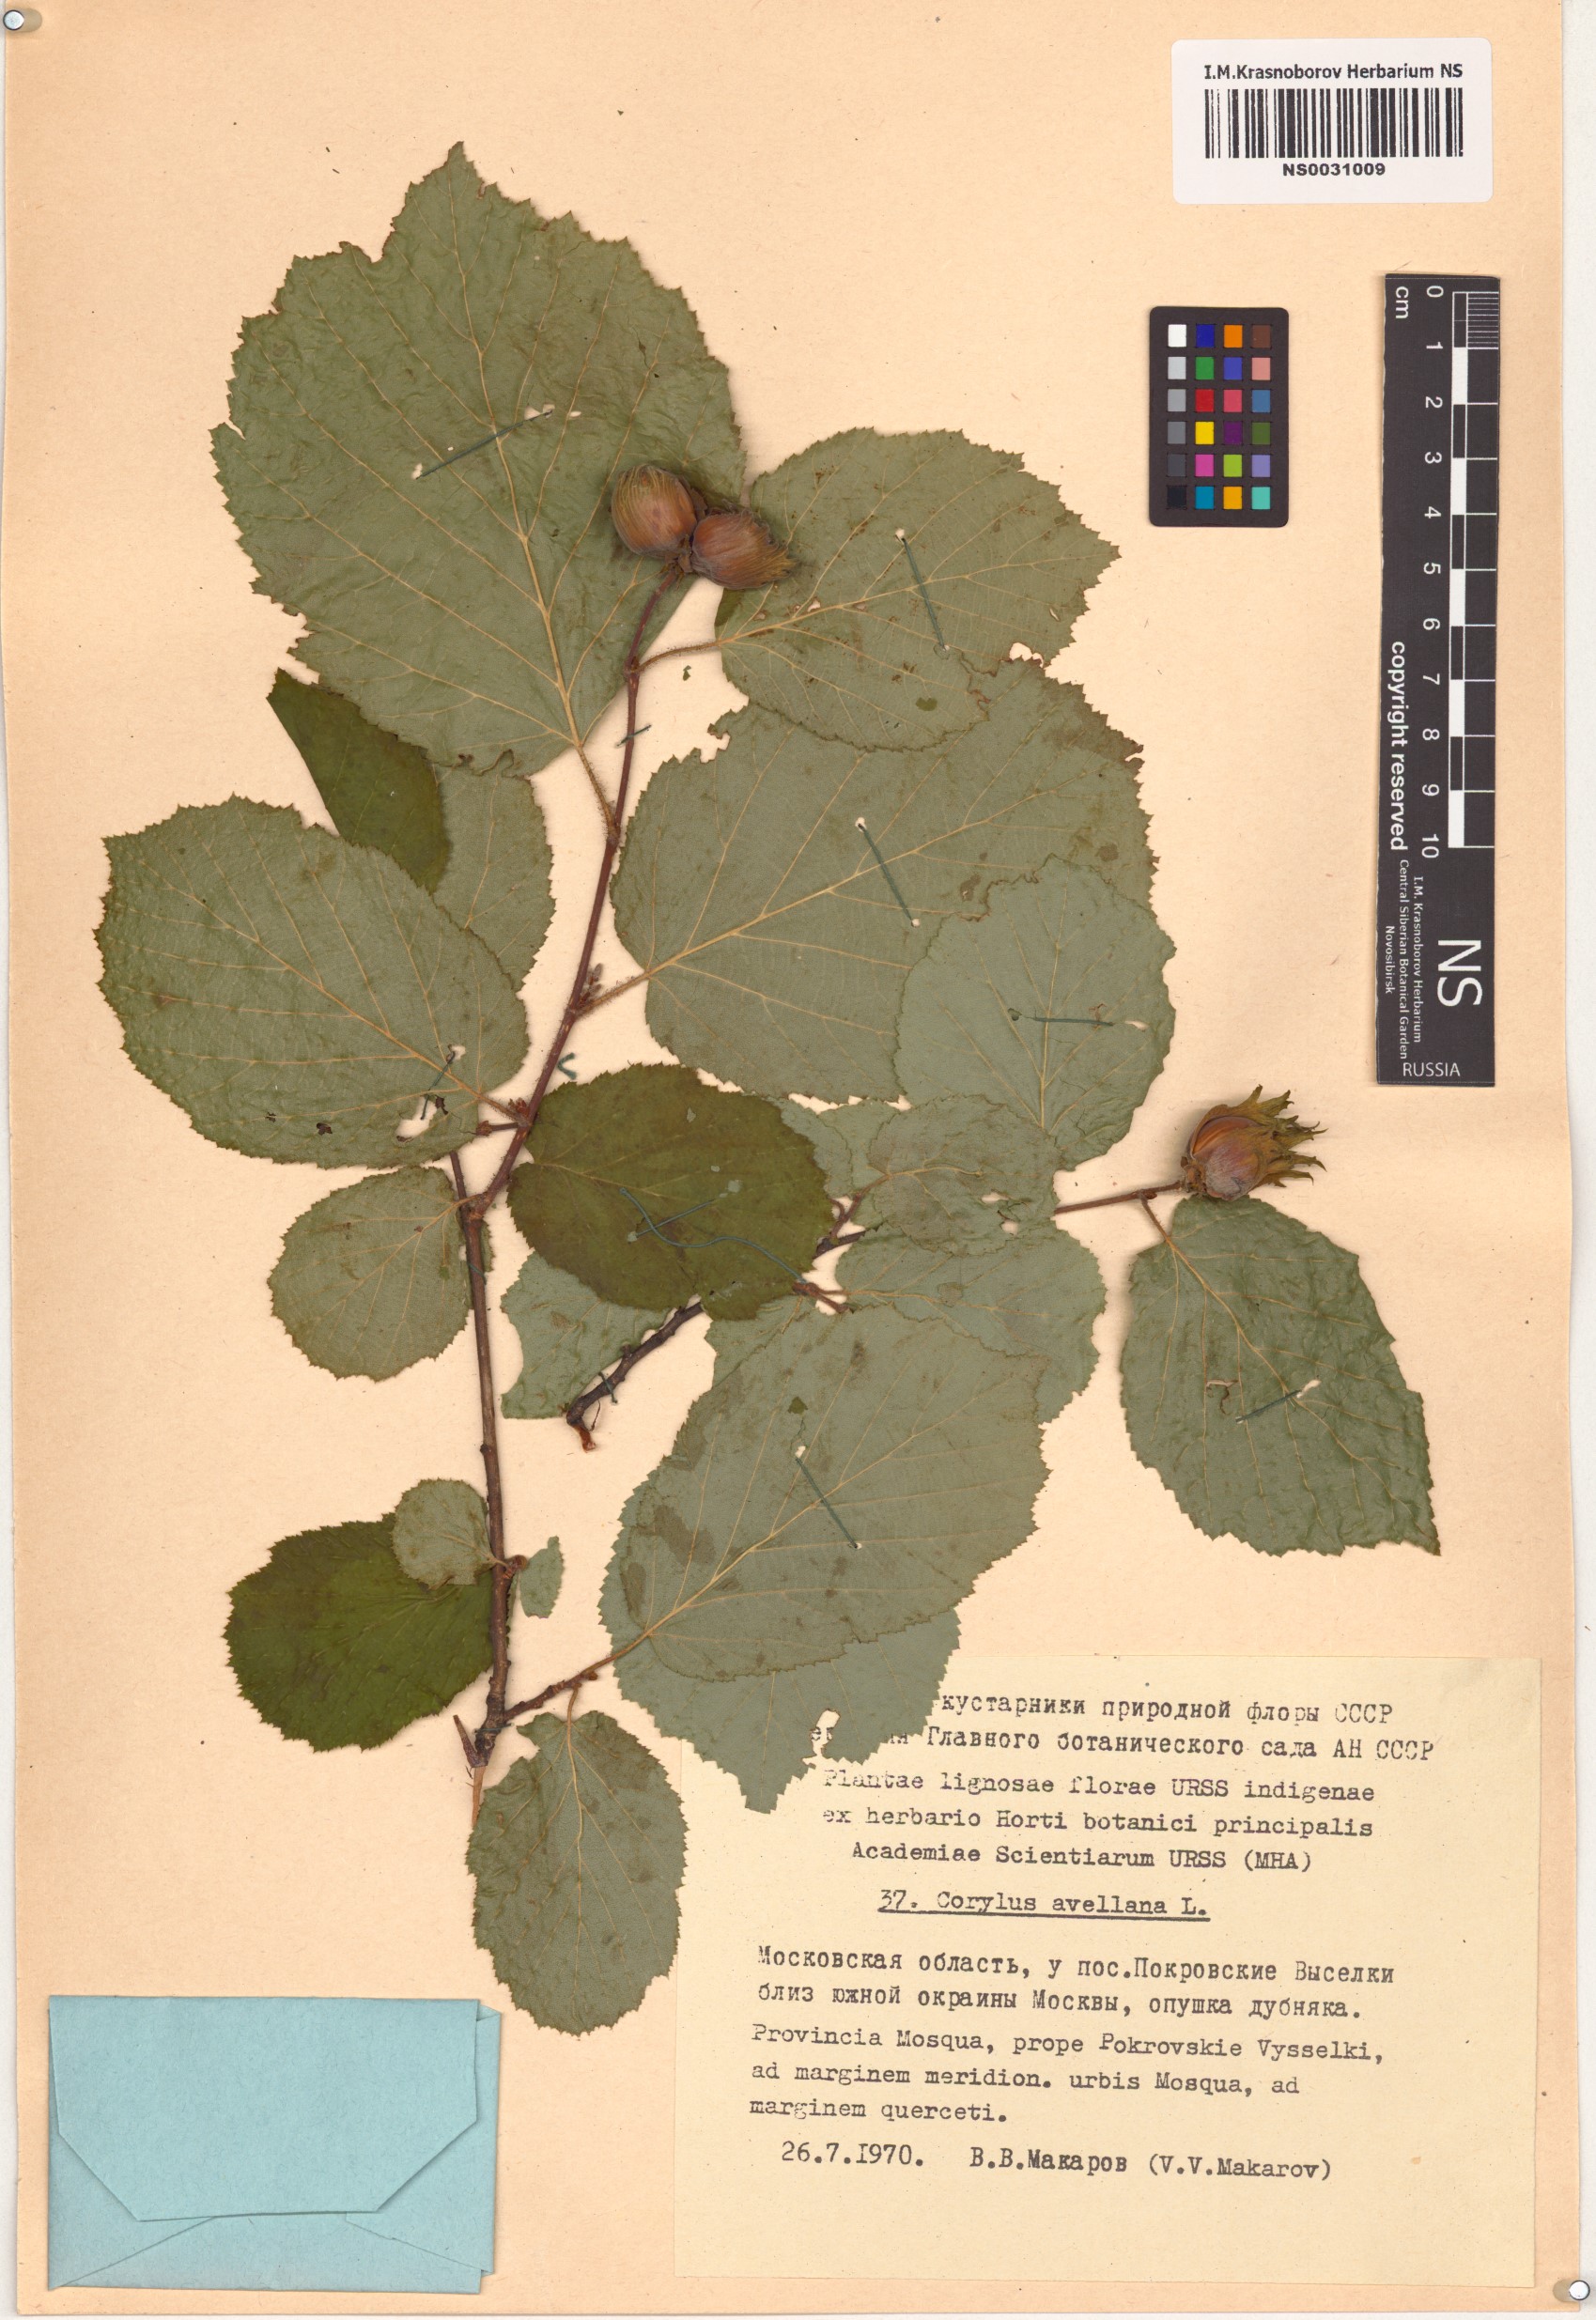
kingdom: Plantae
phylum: Tracheophyta
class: Magnoliopsida
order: Fagales
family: Betulaceae
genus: Corylus
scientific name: Corylus avellana
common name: European hazel
